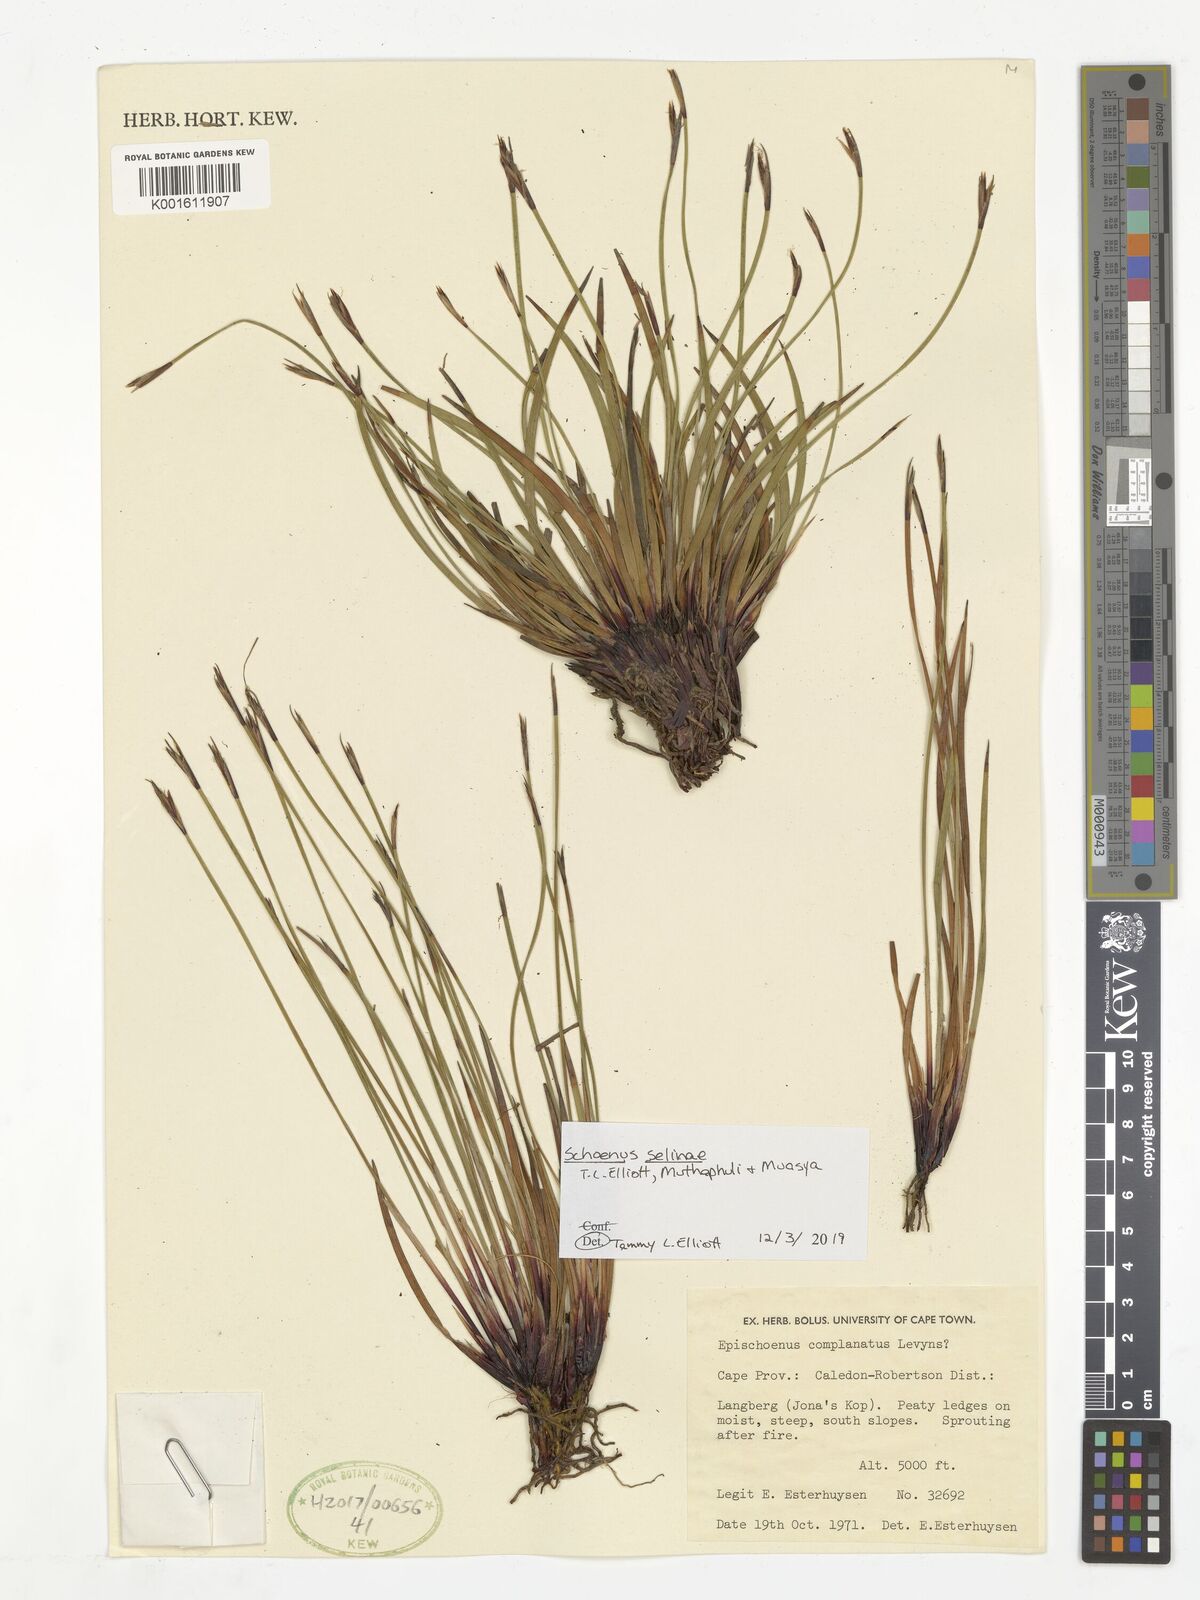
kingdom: Plantae
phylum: Tracheophyta
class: Liliopsida
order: Poales
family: Cyperaceae
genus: Schoenus
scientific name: Schoenus
